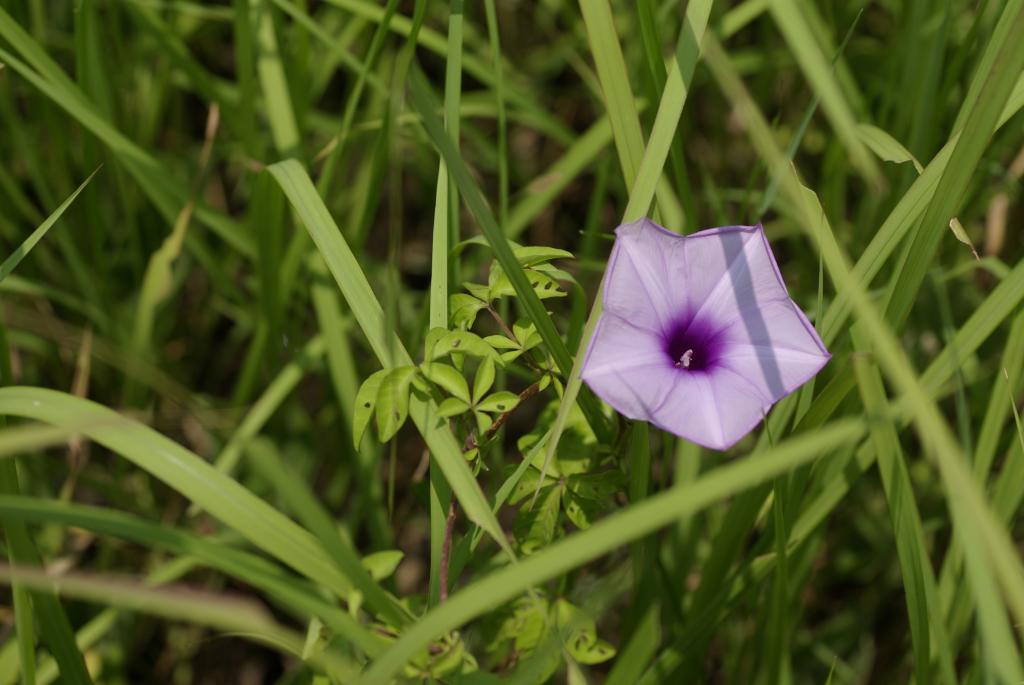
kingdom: Plantae
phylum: Tracheophyta
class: Magnoliopsida
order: Solanales
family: Convolvulaceae
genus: Ipomoea
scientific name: Ipomoea cairica
